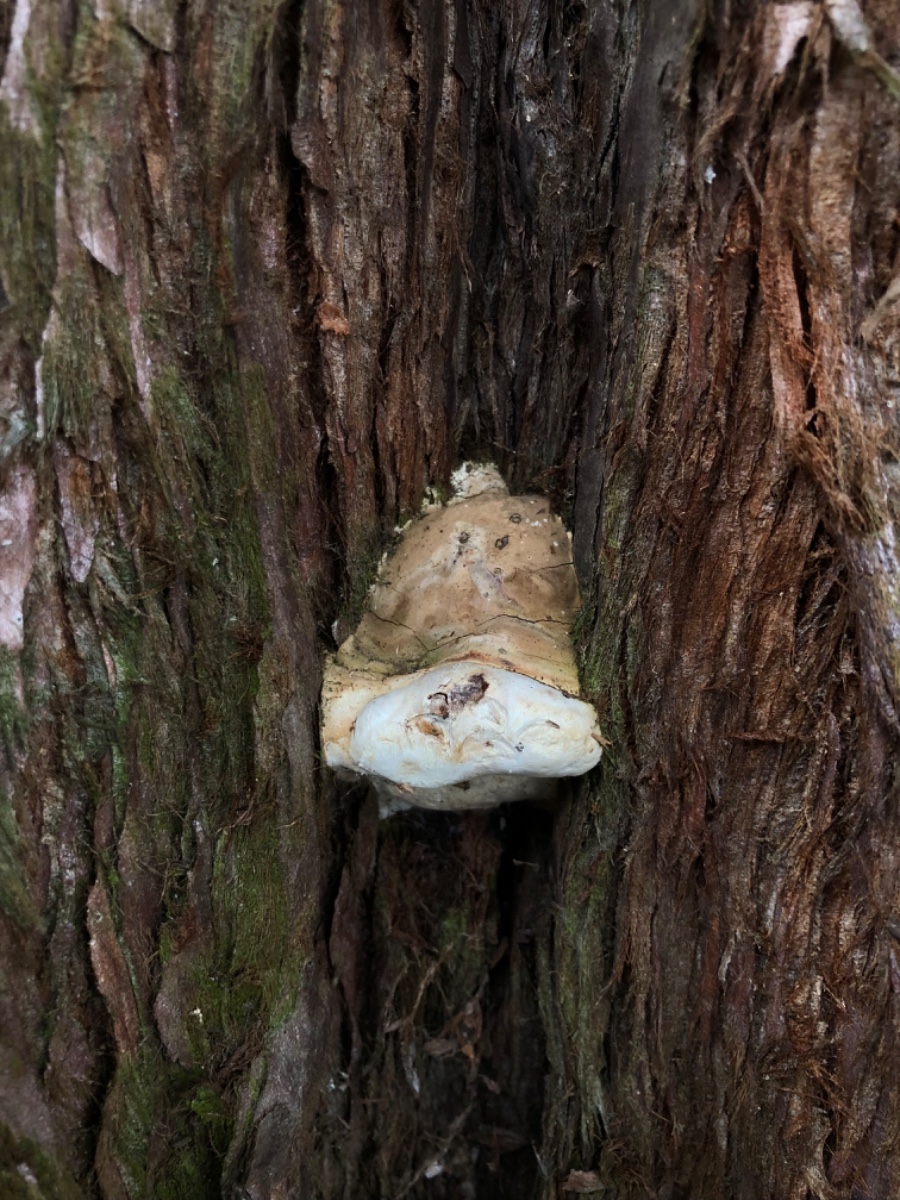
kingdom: Fungi
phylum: Basidiomycota
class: Agaricomycetes
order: Polyporales
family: Polyporaceae
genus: Ganoderma
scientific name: Ganoderma
